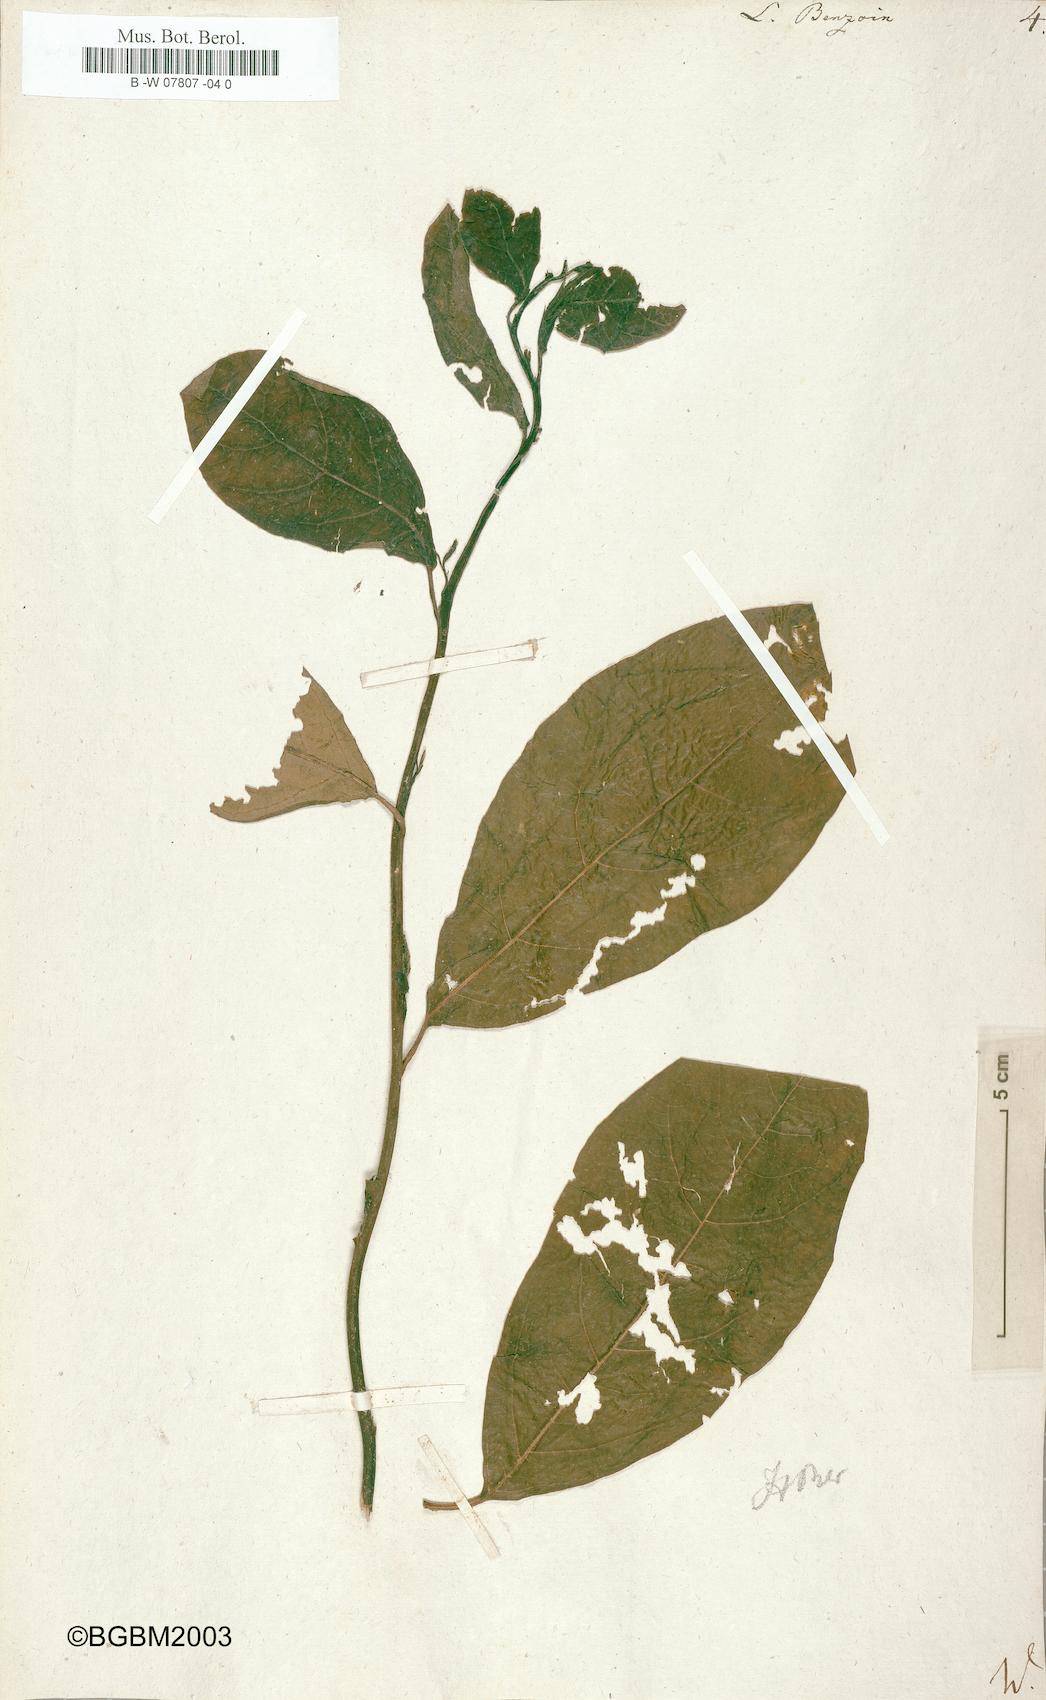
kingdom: Plantae
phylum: Tracheophyta
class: Magnoliopsida
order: Laurales
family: Lauraceae
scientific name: Lauraceae
